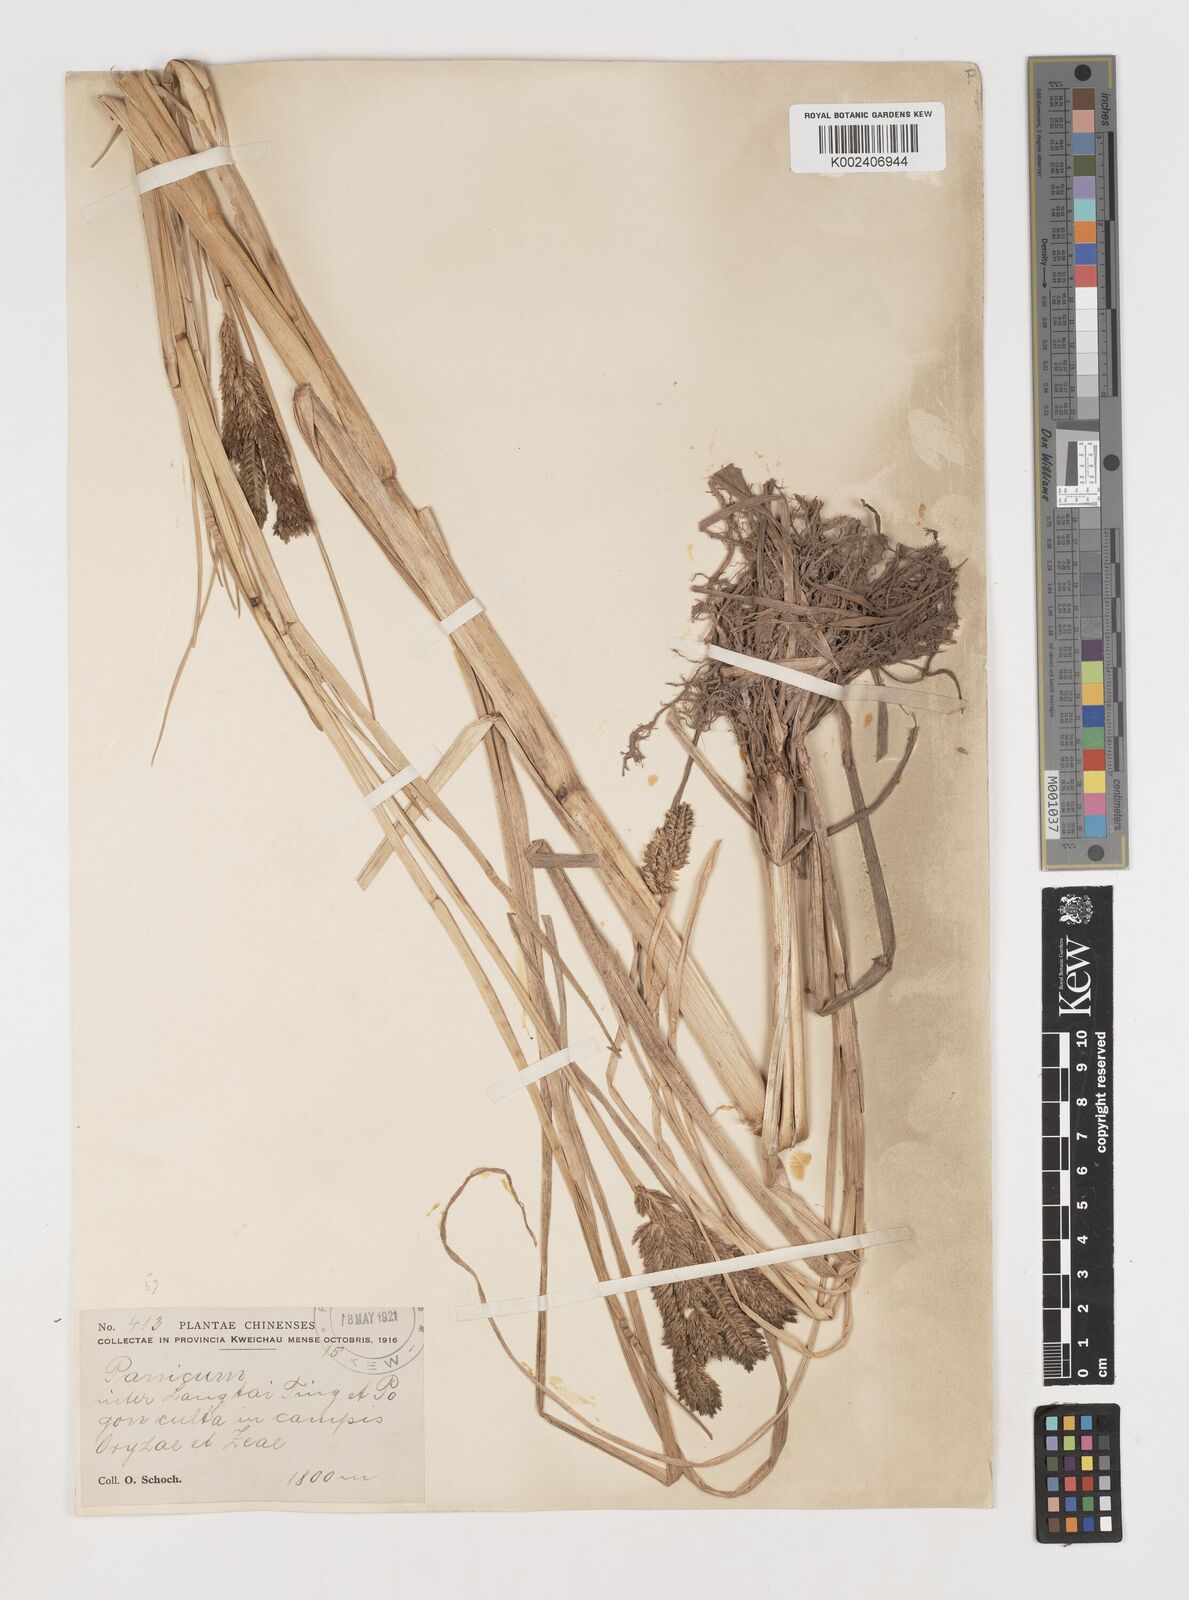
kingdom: Plantae
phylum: Tracheophyta
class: Liliopsida
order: Poales
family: Poaceae
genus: Eleusine
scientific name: Eleusine coracana
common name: Finger millet
